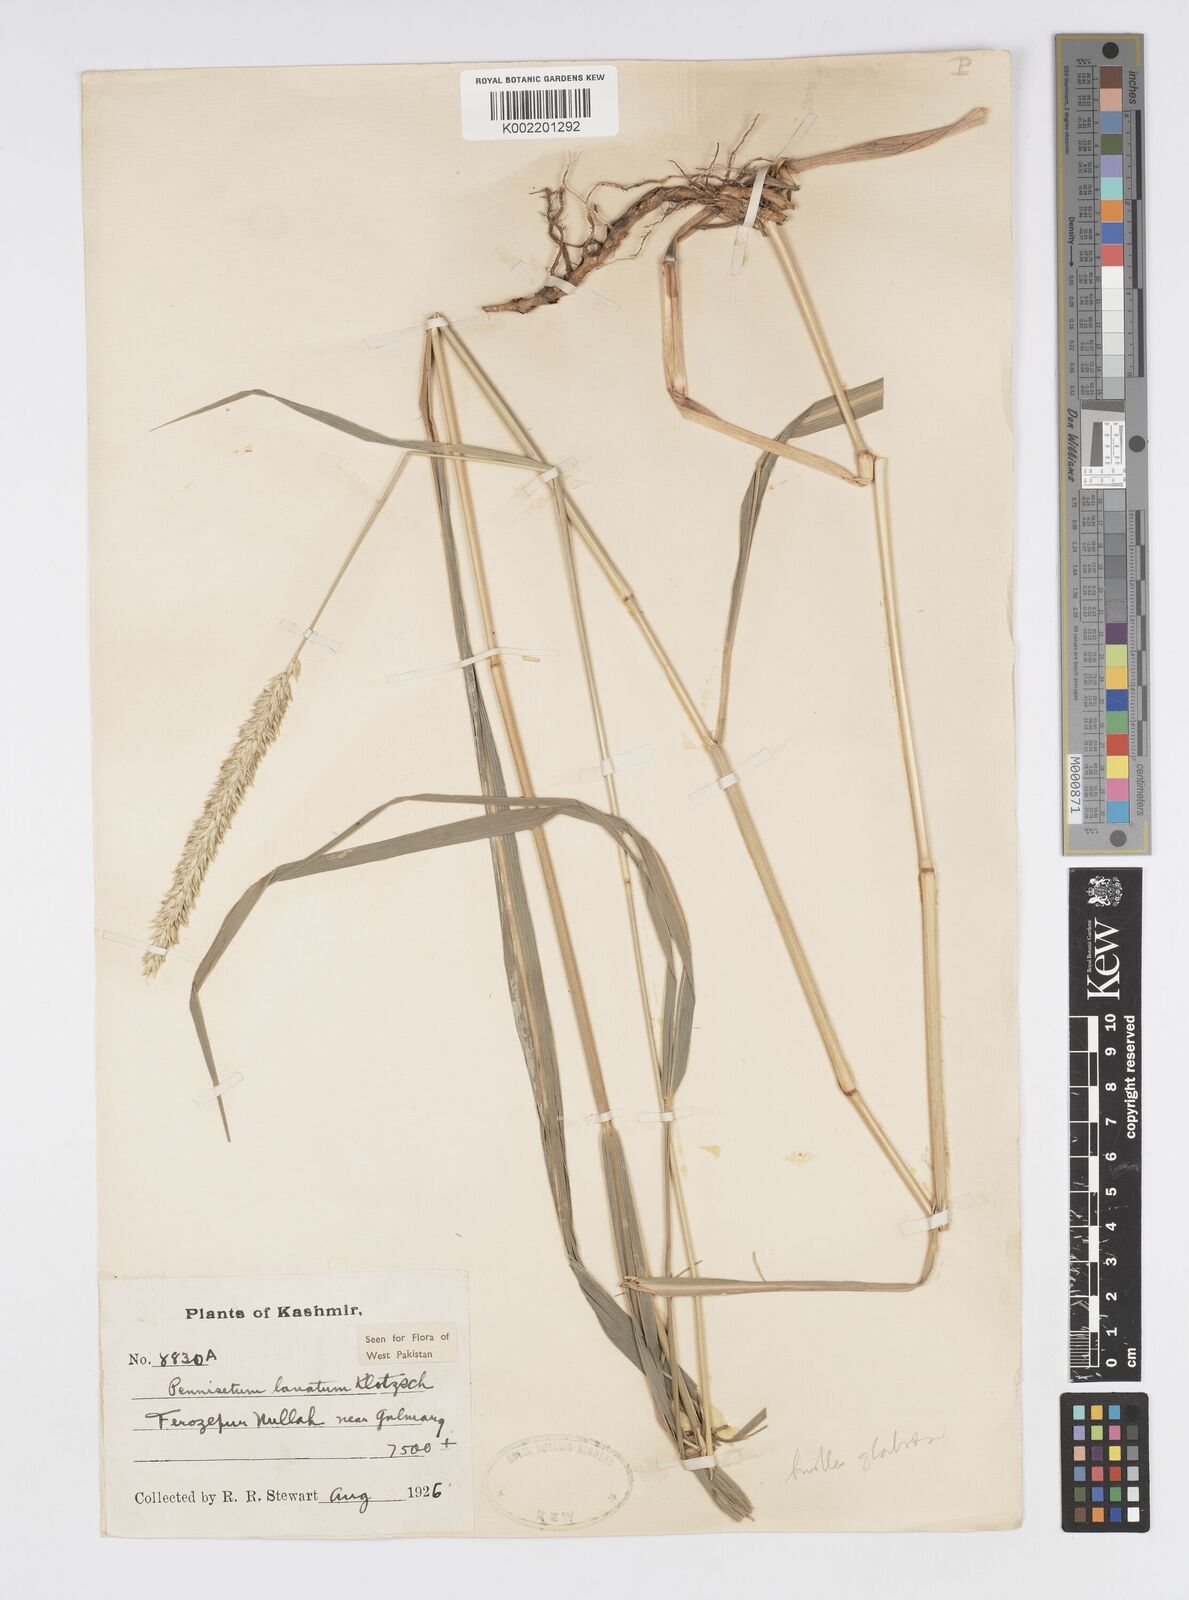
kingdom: Plantae
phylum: Tracheophyta
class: Liliopsida
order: Poales
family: Poaceae
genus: Cenchrus
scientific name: Cenchrus lanatus
